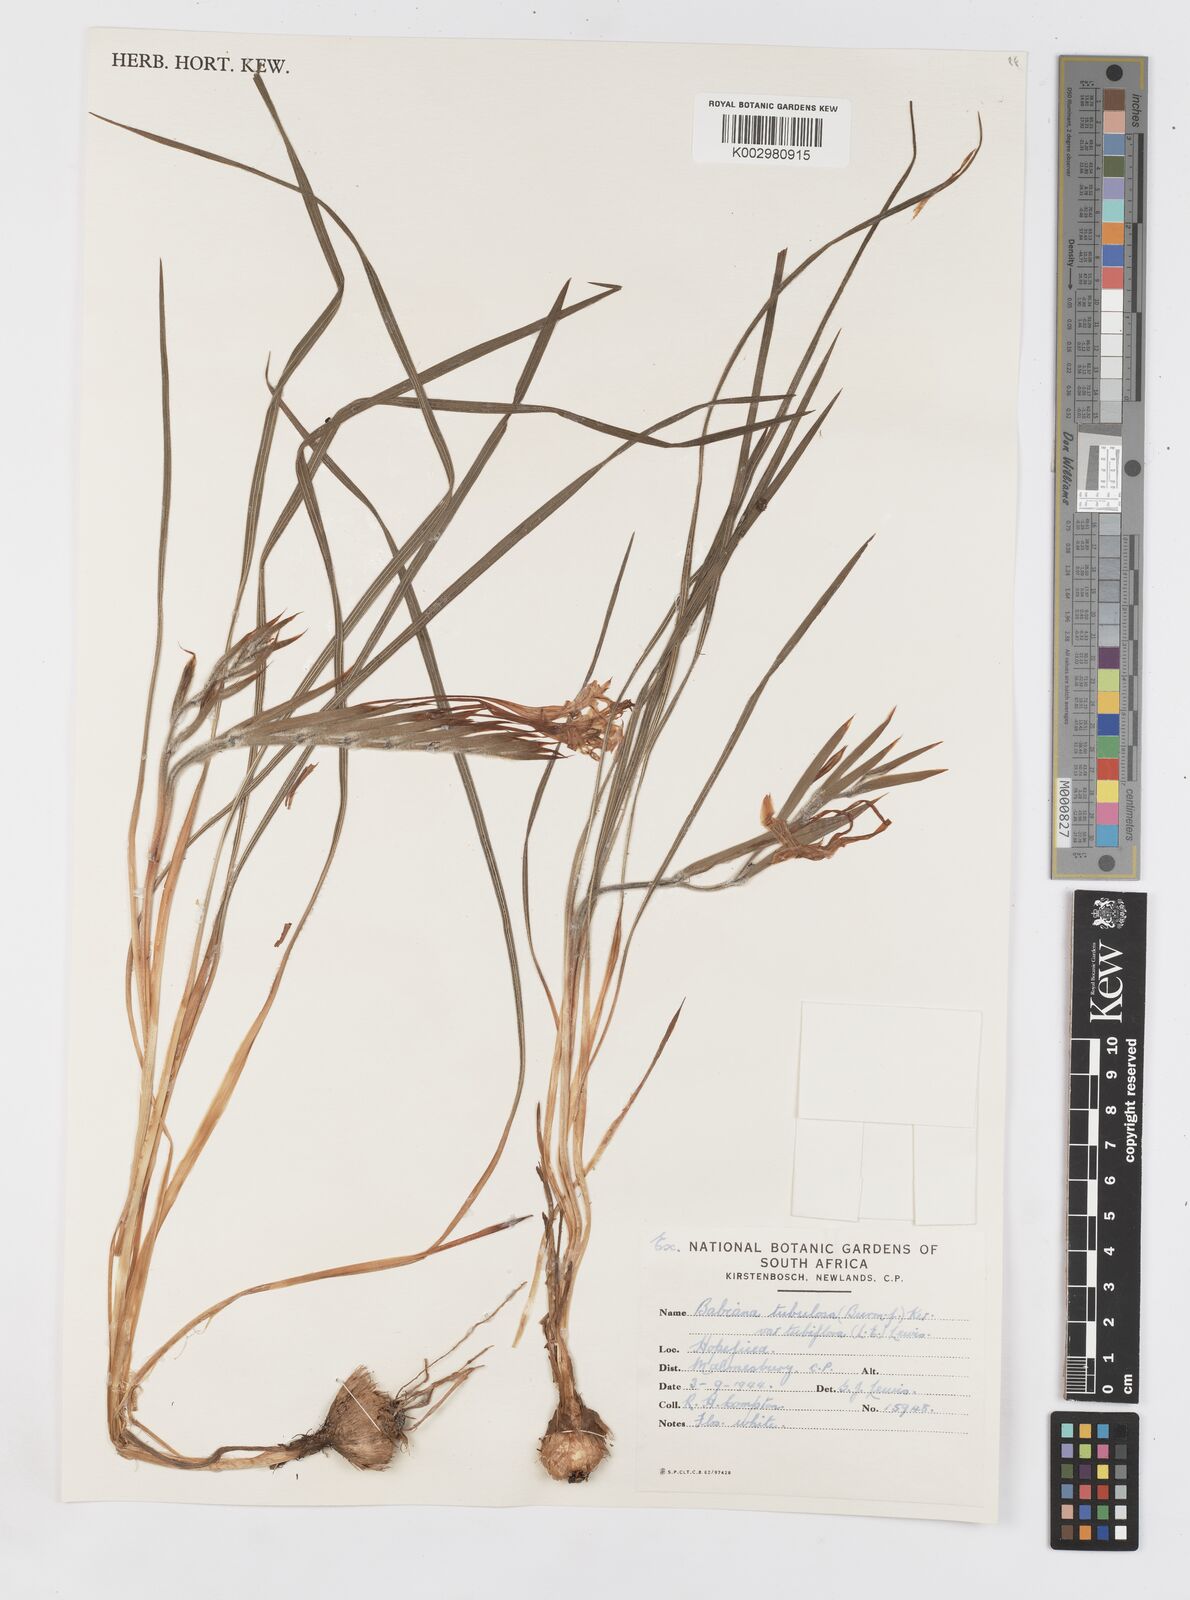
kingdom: Plantae
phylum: Tracheophyta
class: Liliopsida
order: Asparagales
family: Iridaceae
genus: Babiana
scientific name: Babiana tubiflora
